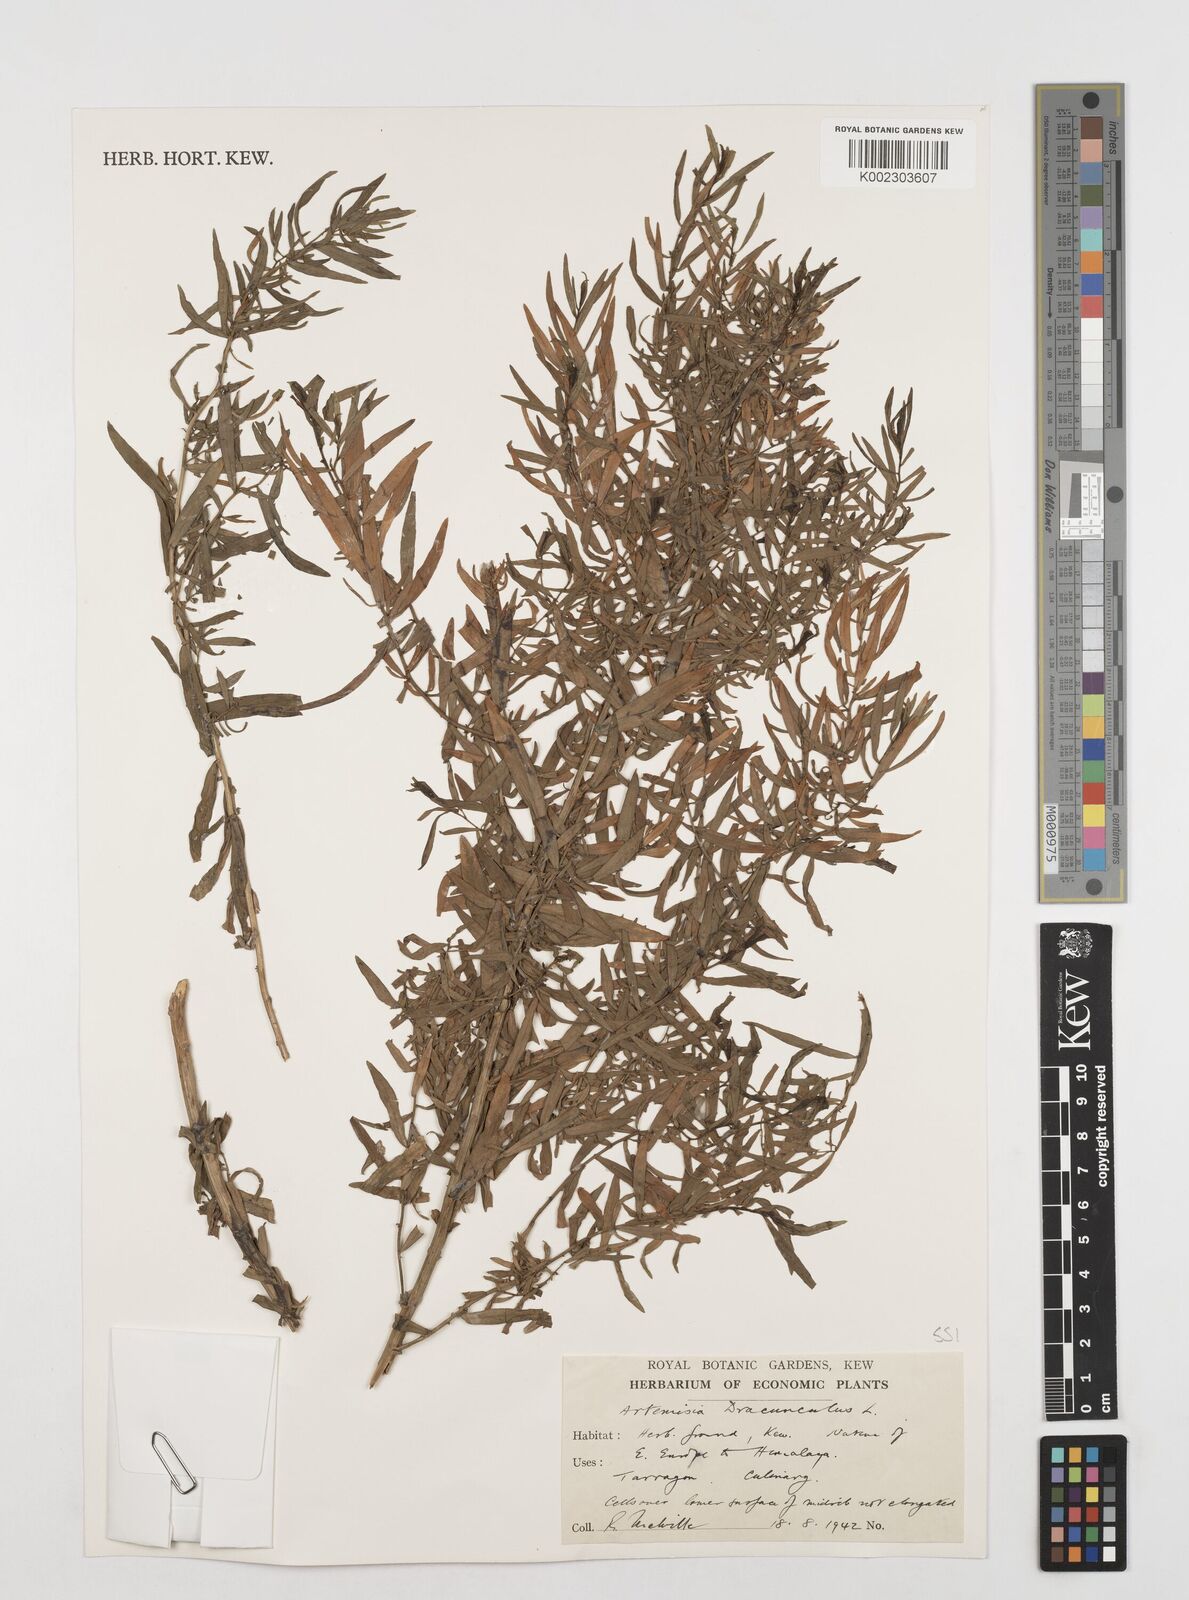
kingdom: Plantae
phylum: Tracheophyta
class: Magnoliopsida
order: Asterales
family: Asteraceae
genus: Artemisia
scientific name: Artemisia dracunculus
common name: Tarragon
